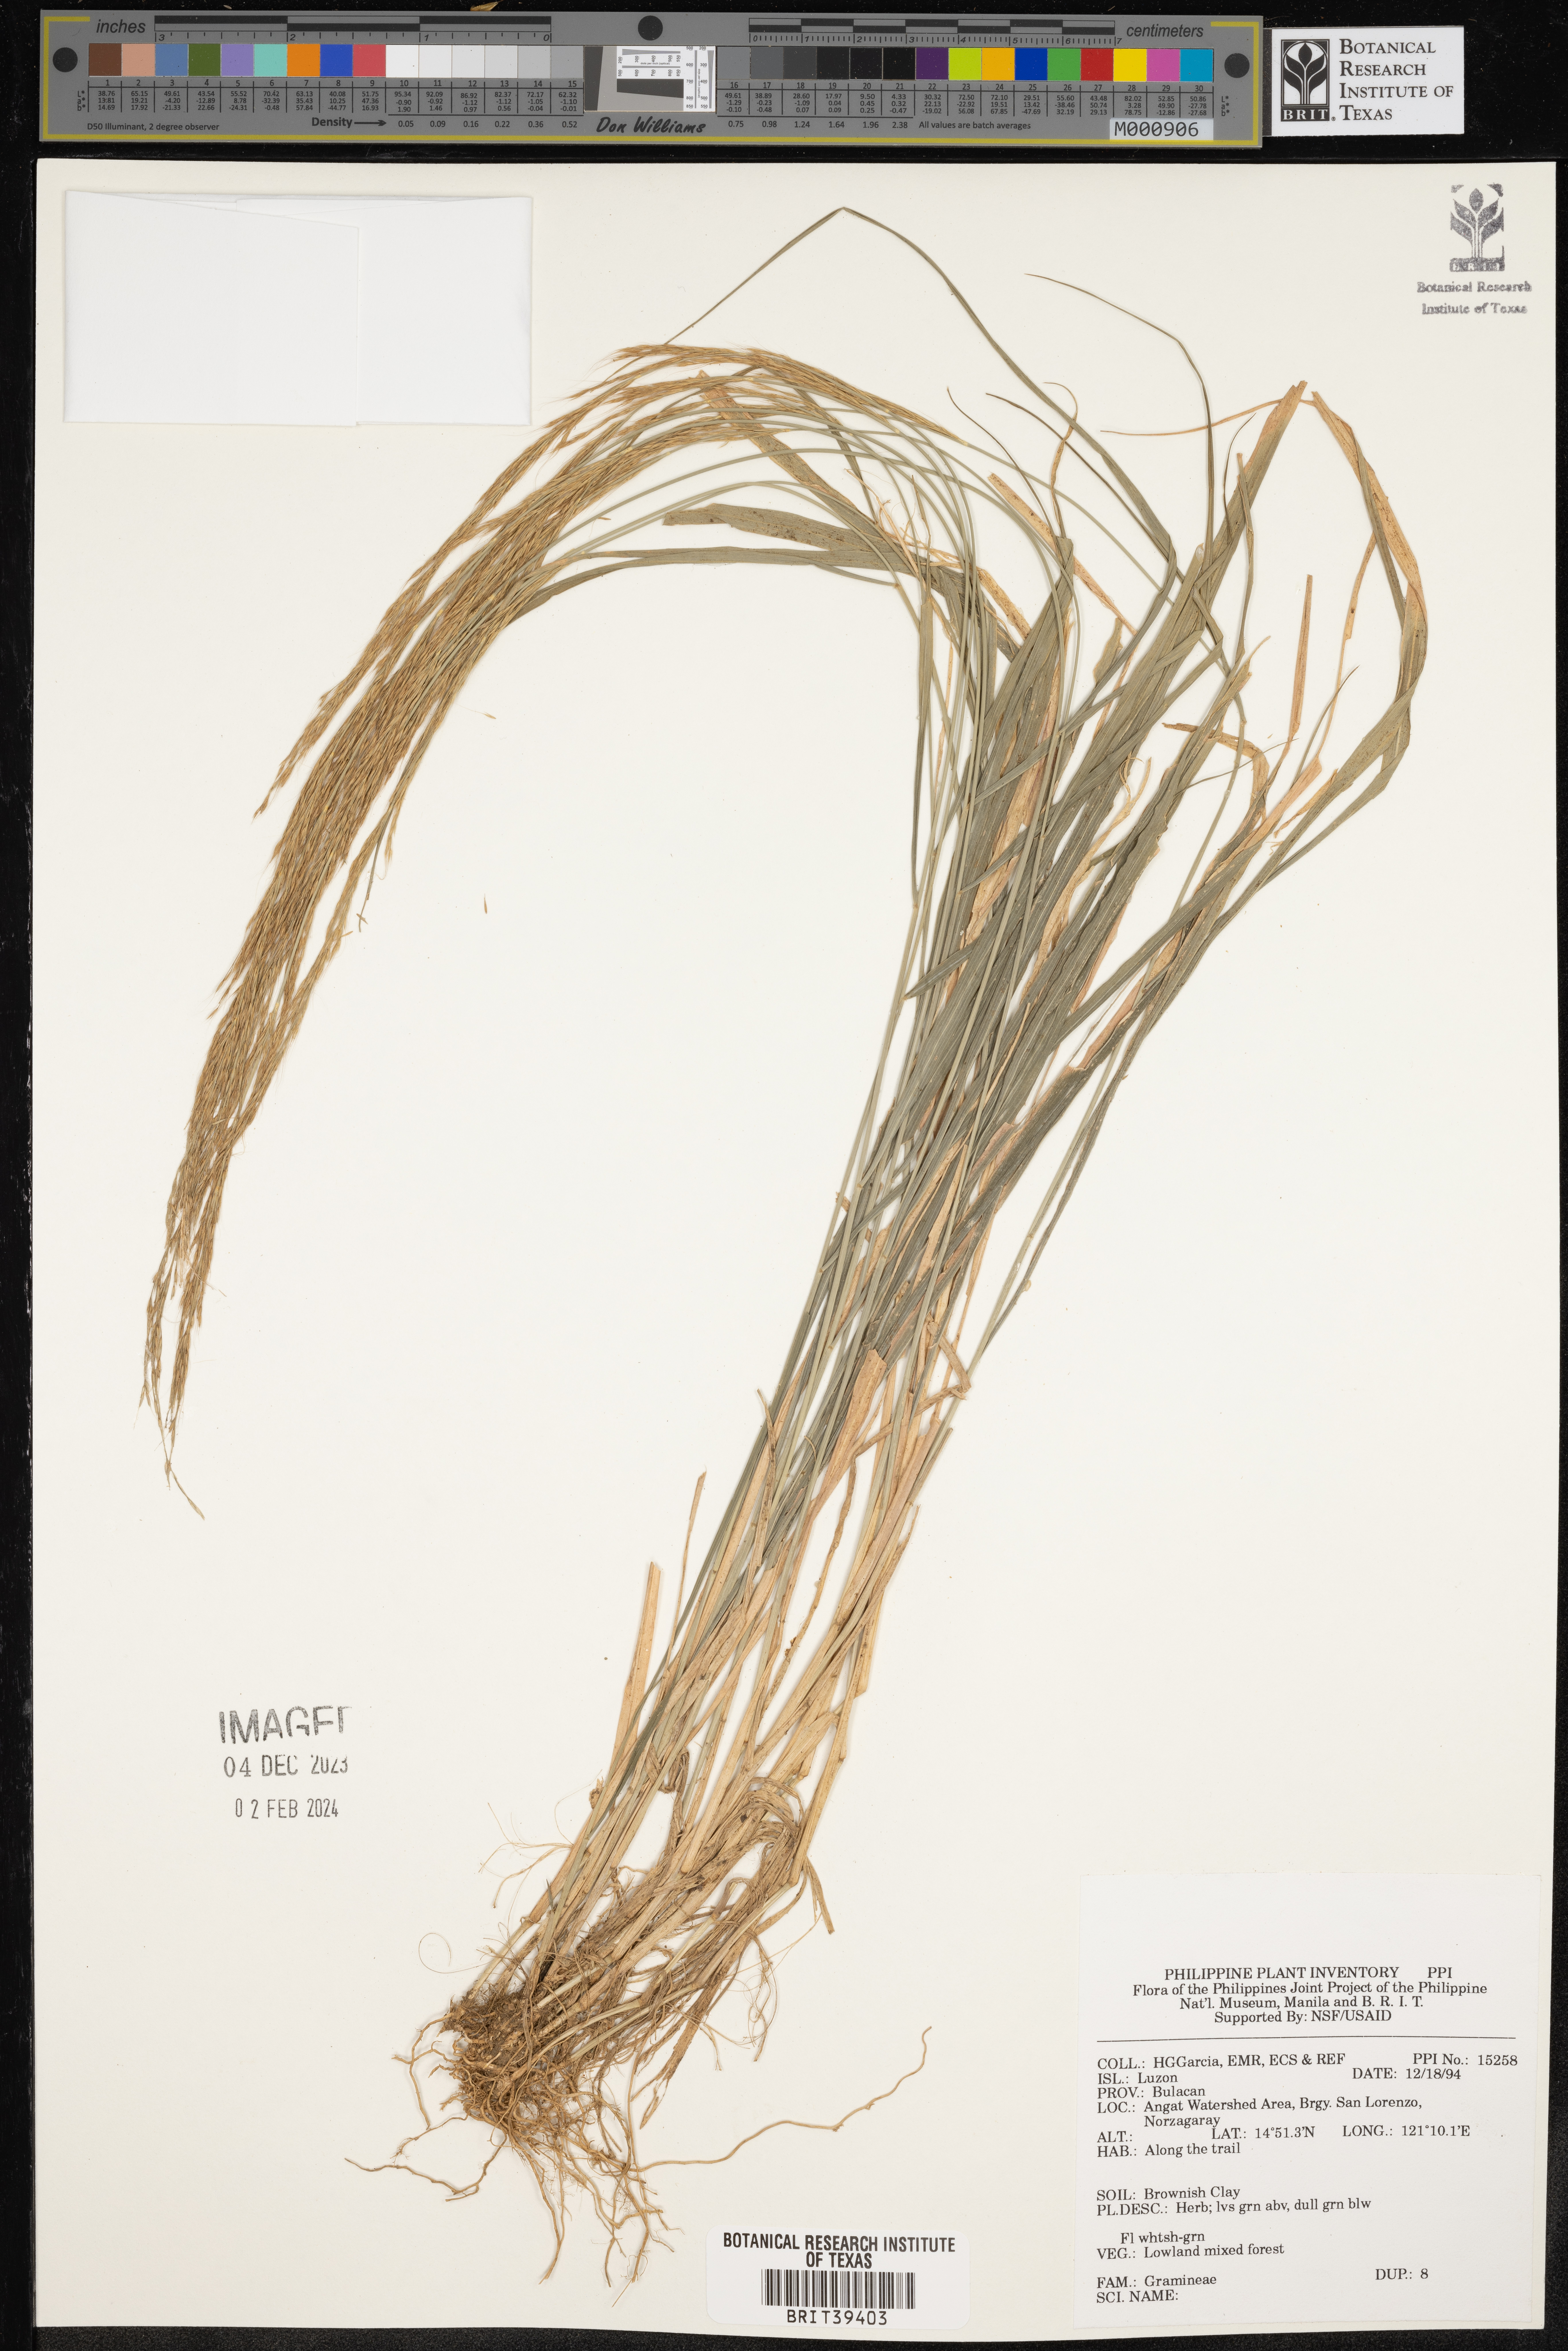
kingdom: Plantae
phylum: Tracheophyta
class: Liliopsida
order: Poales
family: Poaceae
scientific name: Poaceae
